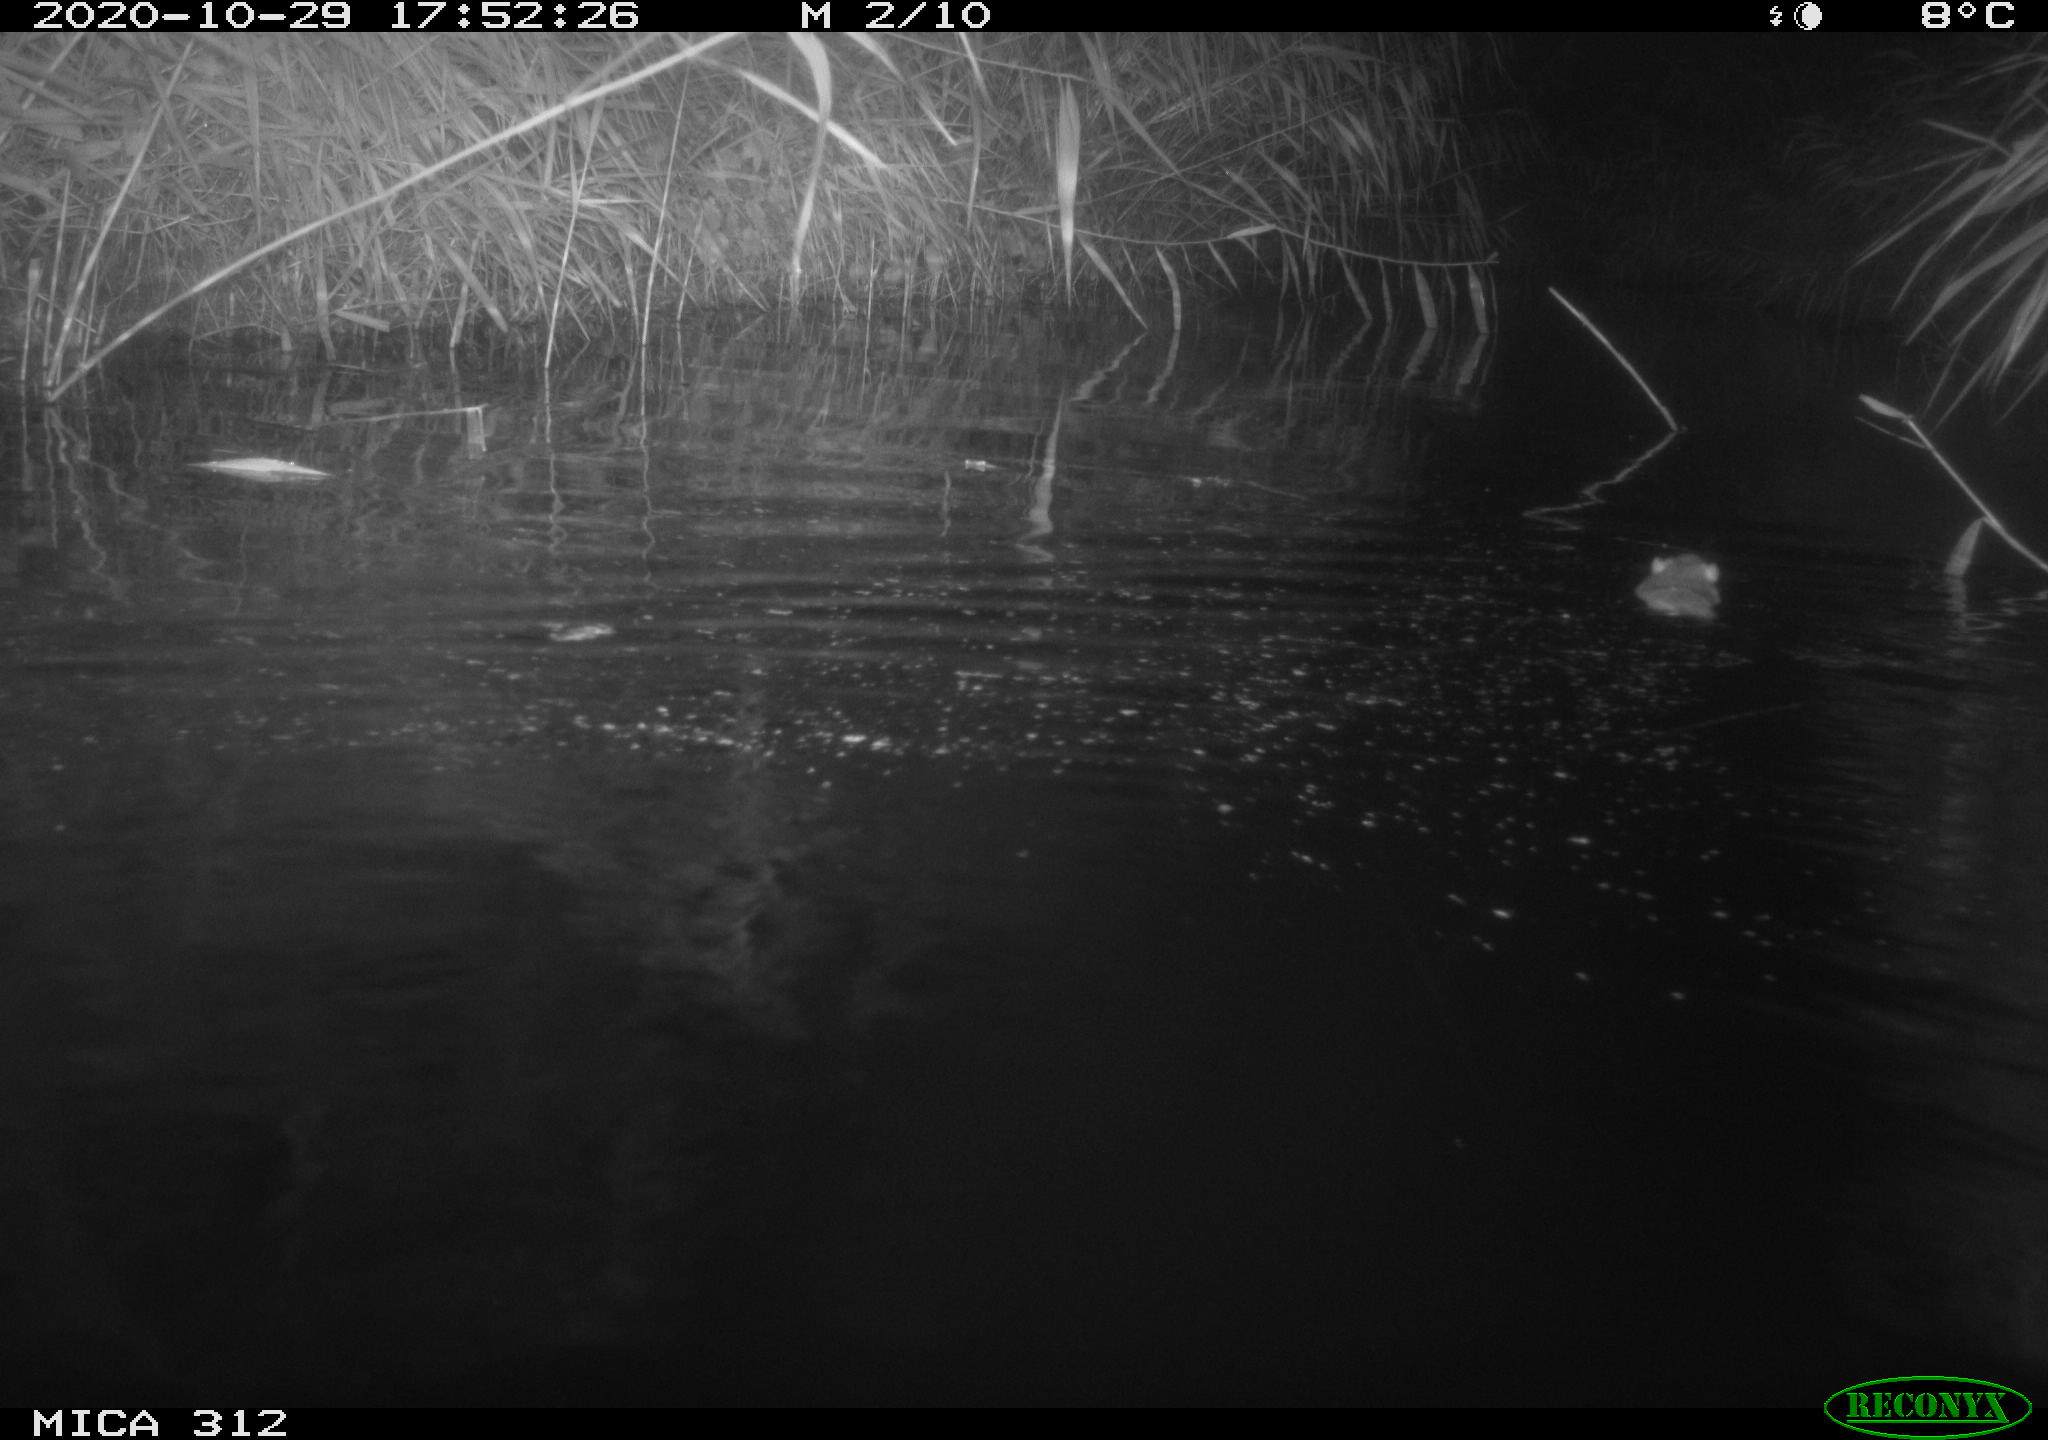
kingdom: Animalia
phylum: Chordata
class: Mammalia
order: Rodentia
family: Muridae
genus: Rattus
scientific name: Rattus norvegicus
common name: Brown rat
